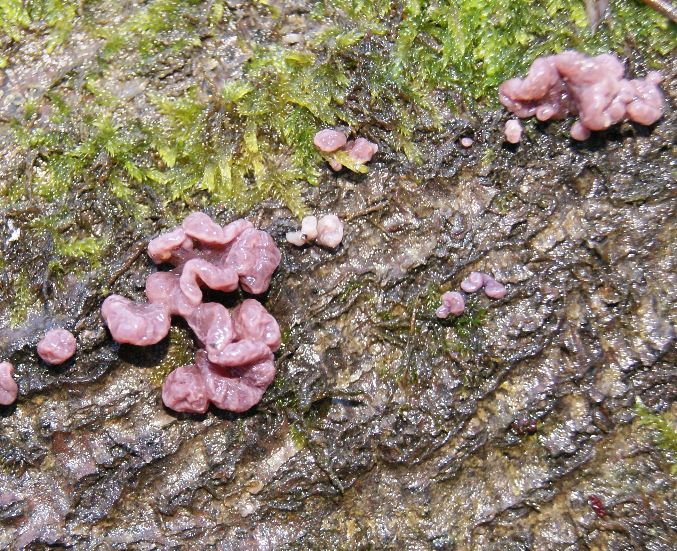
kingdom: Fungi
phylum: Ascomycota
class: Leotiomycetes
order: Helotiales
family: Gelatinodiscaceae
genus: Ascocoryne
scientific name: Ascocoryne sarcoides
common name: rødlilla sejskive
